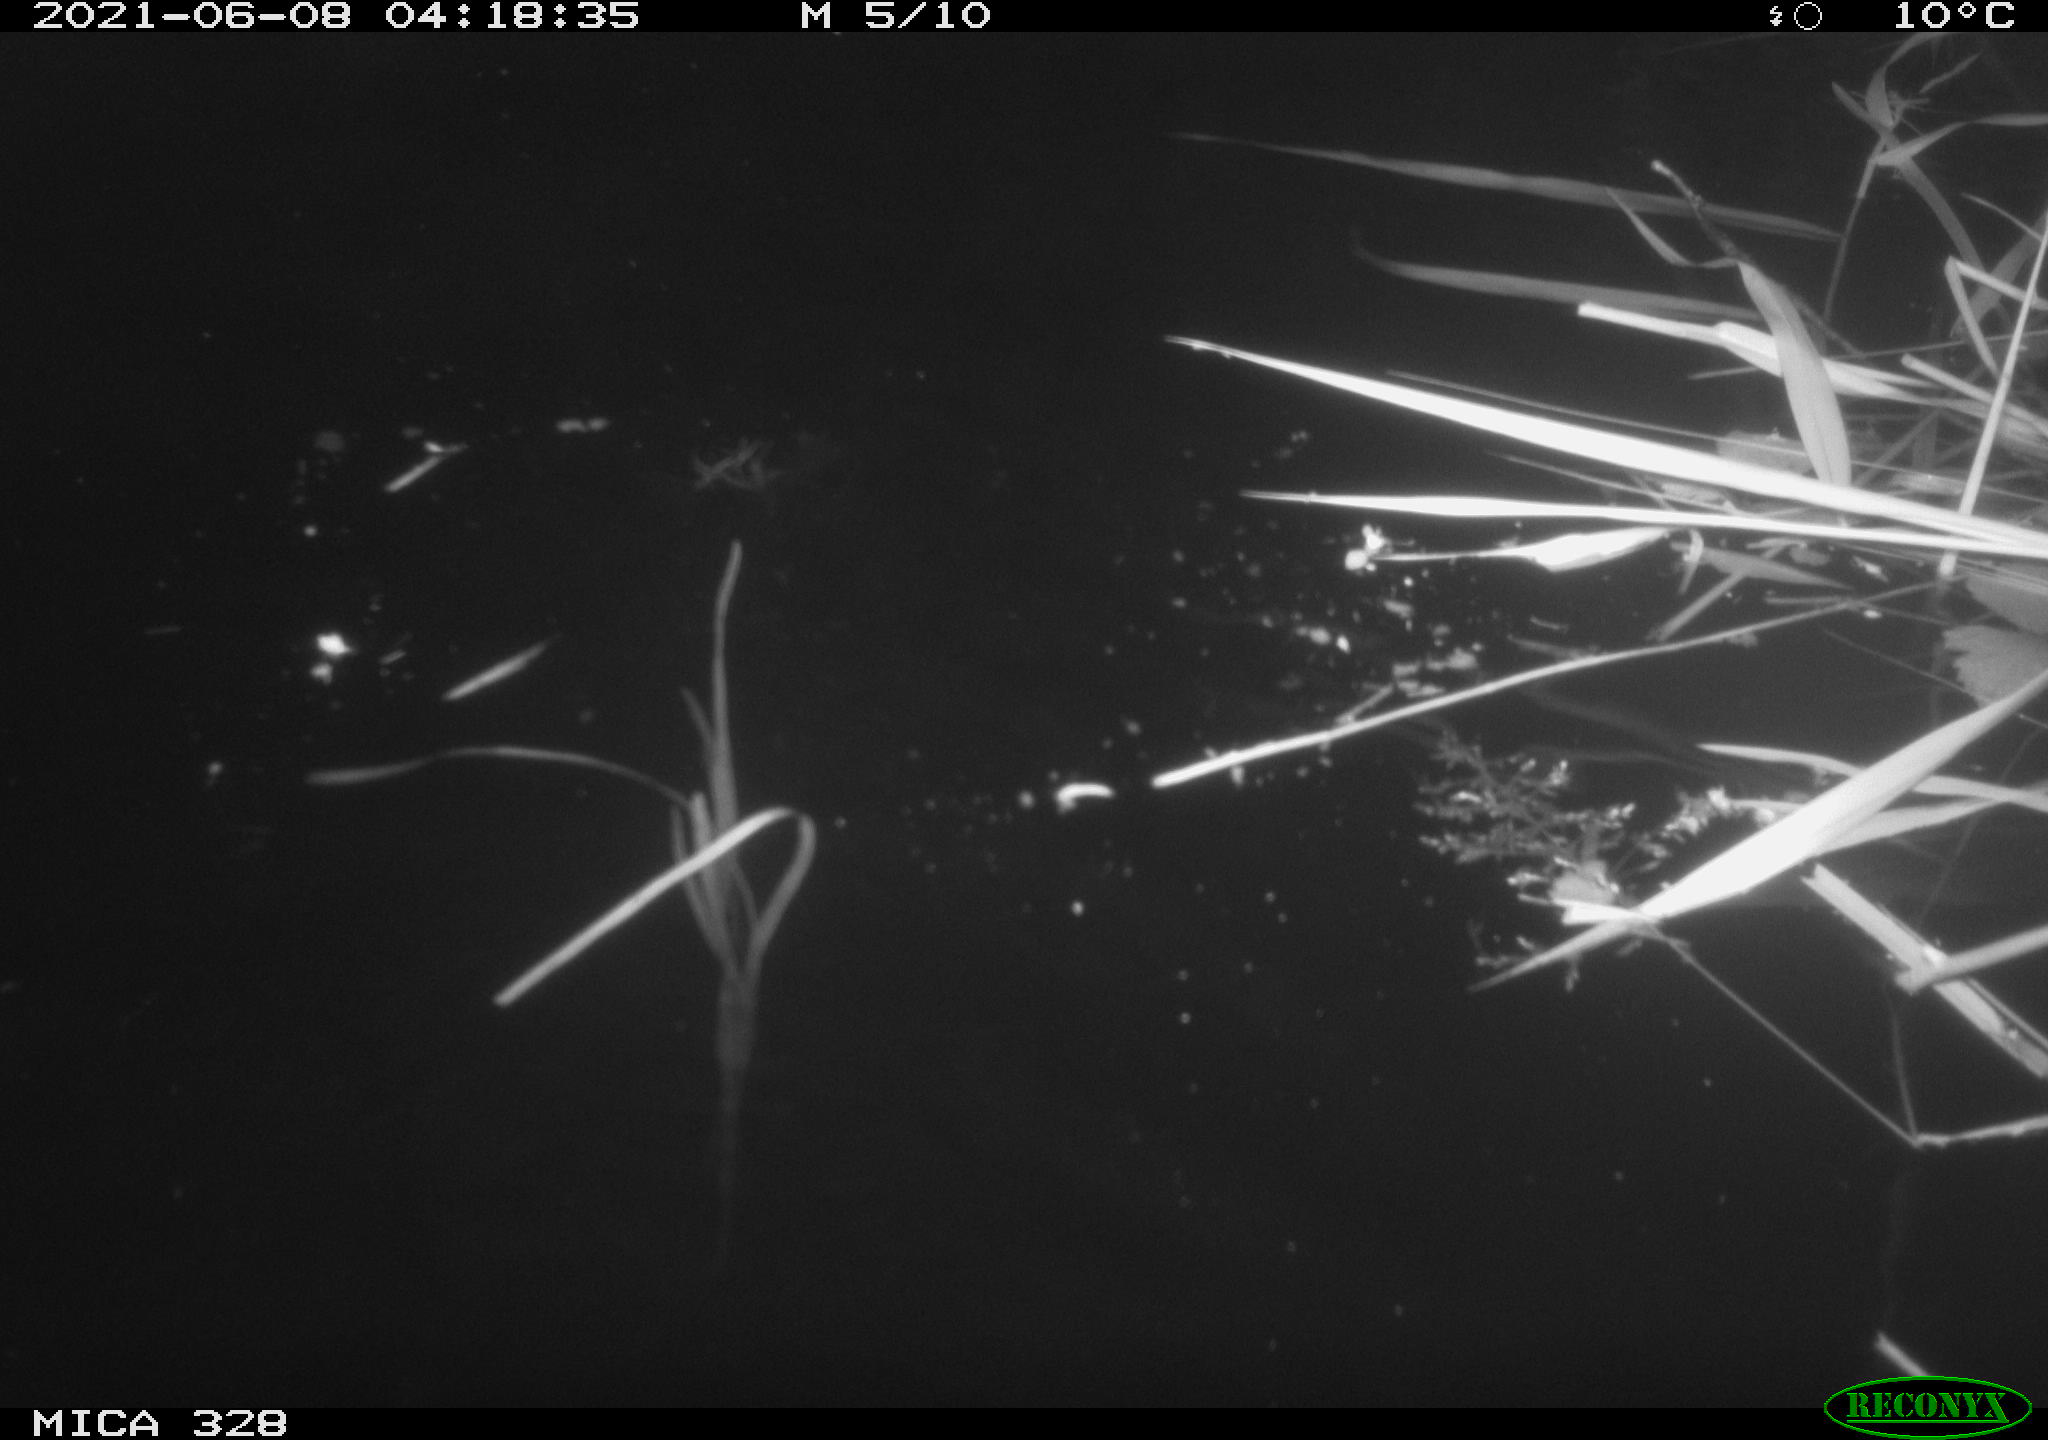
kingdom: Animalia
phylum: Chordata
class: Mammalia
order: Rodentia
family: Cricetidae
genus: Ondatra
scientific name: Ondatra zibethicus
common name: Muskrat
